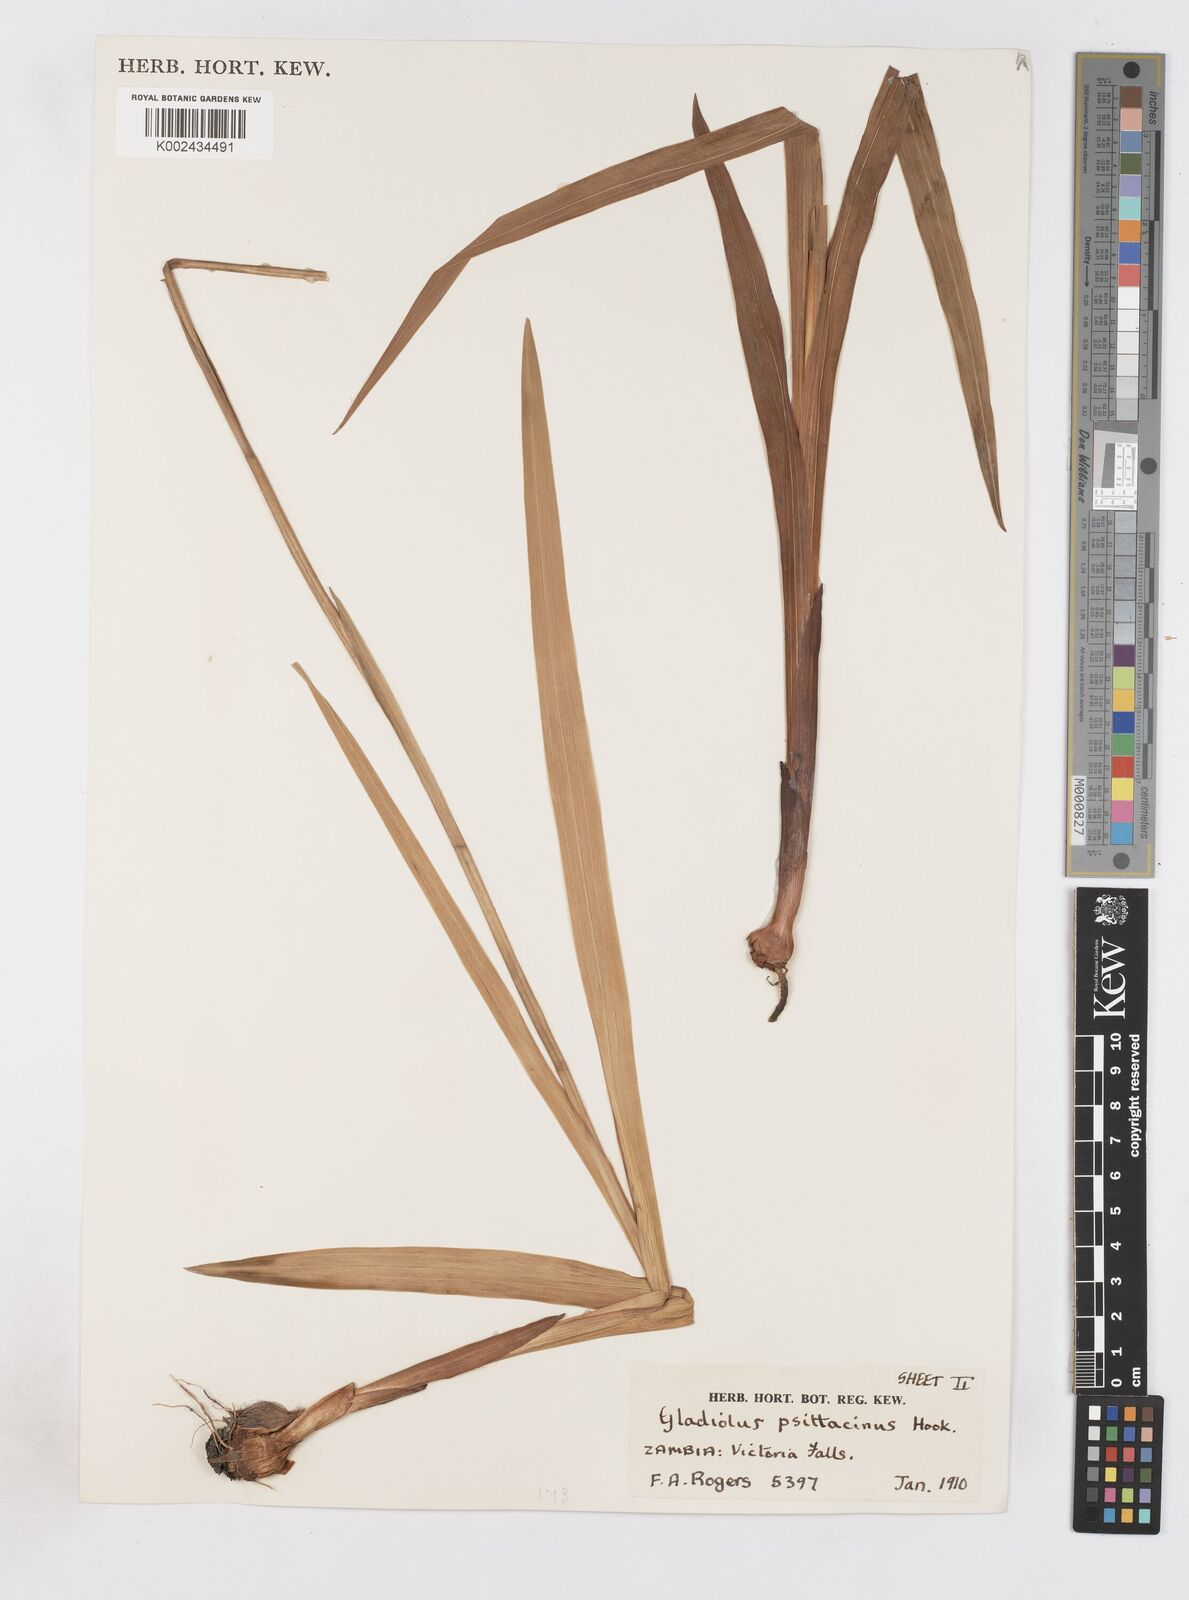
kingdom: Plantae
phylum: Tracheophyta
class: Liliopsida
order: Asparagales
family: Iridaceae
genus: Gladiolus
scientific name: Gladiolus dalenii
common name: Cornflag
